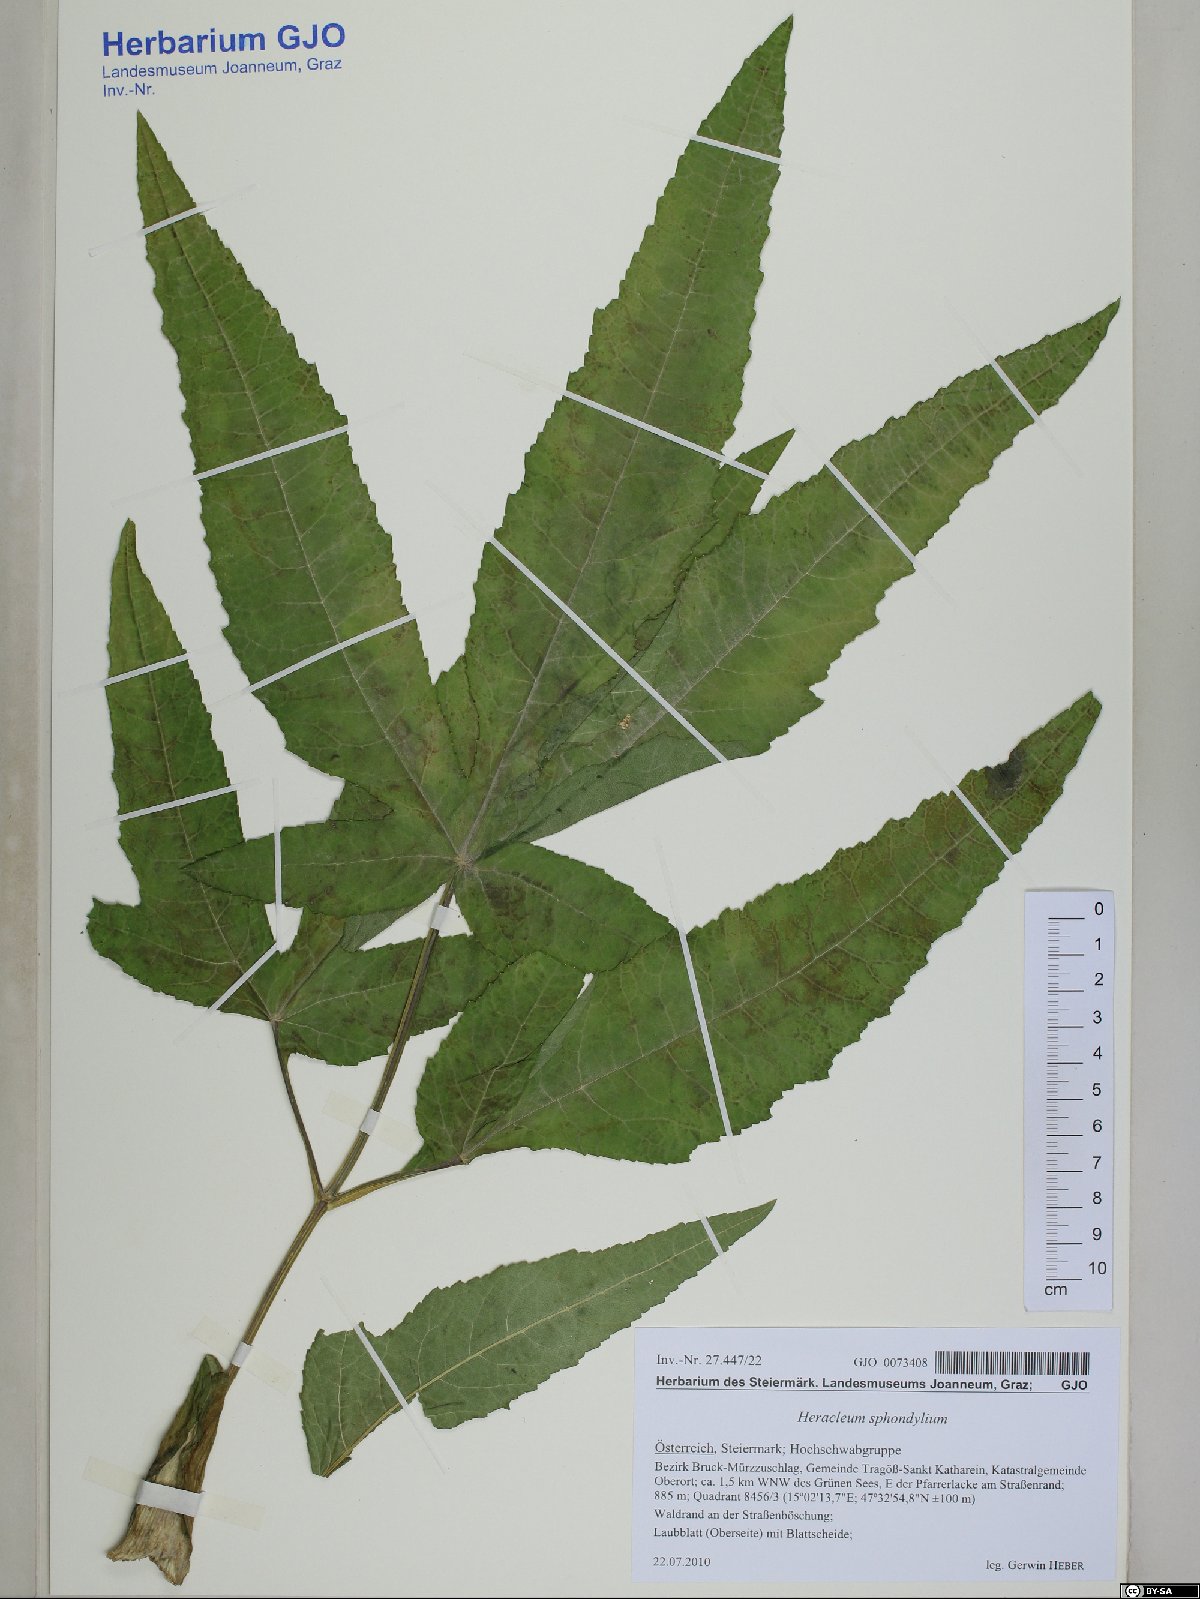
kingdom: Plantae
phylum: Tracheophyta
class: Magnoliopsida
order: Apiales
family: Apiaceae
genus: Heracleum
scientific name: Heracleum sphondylium
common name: Hogweed
